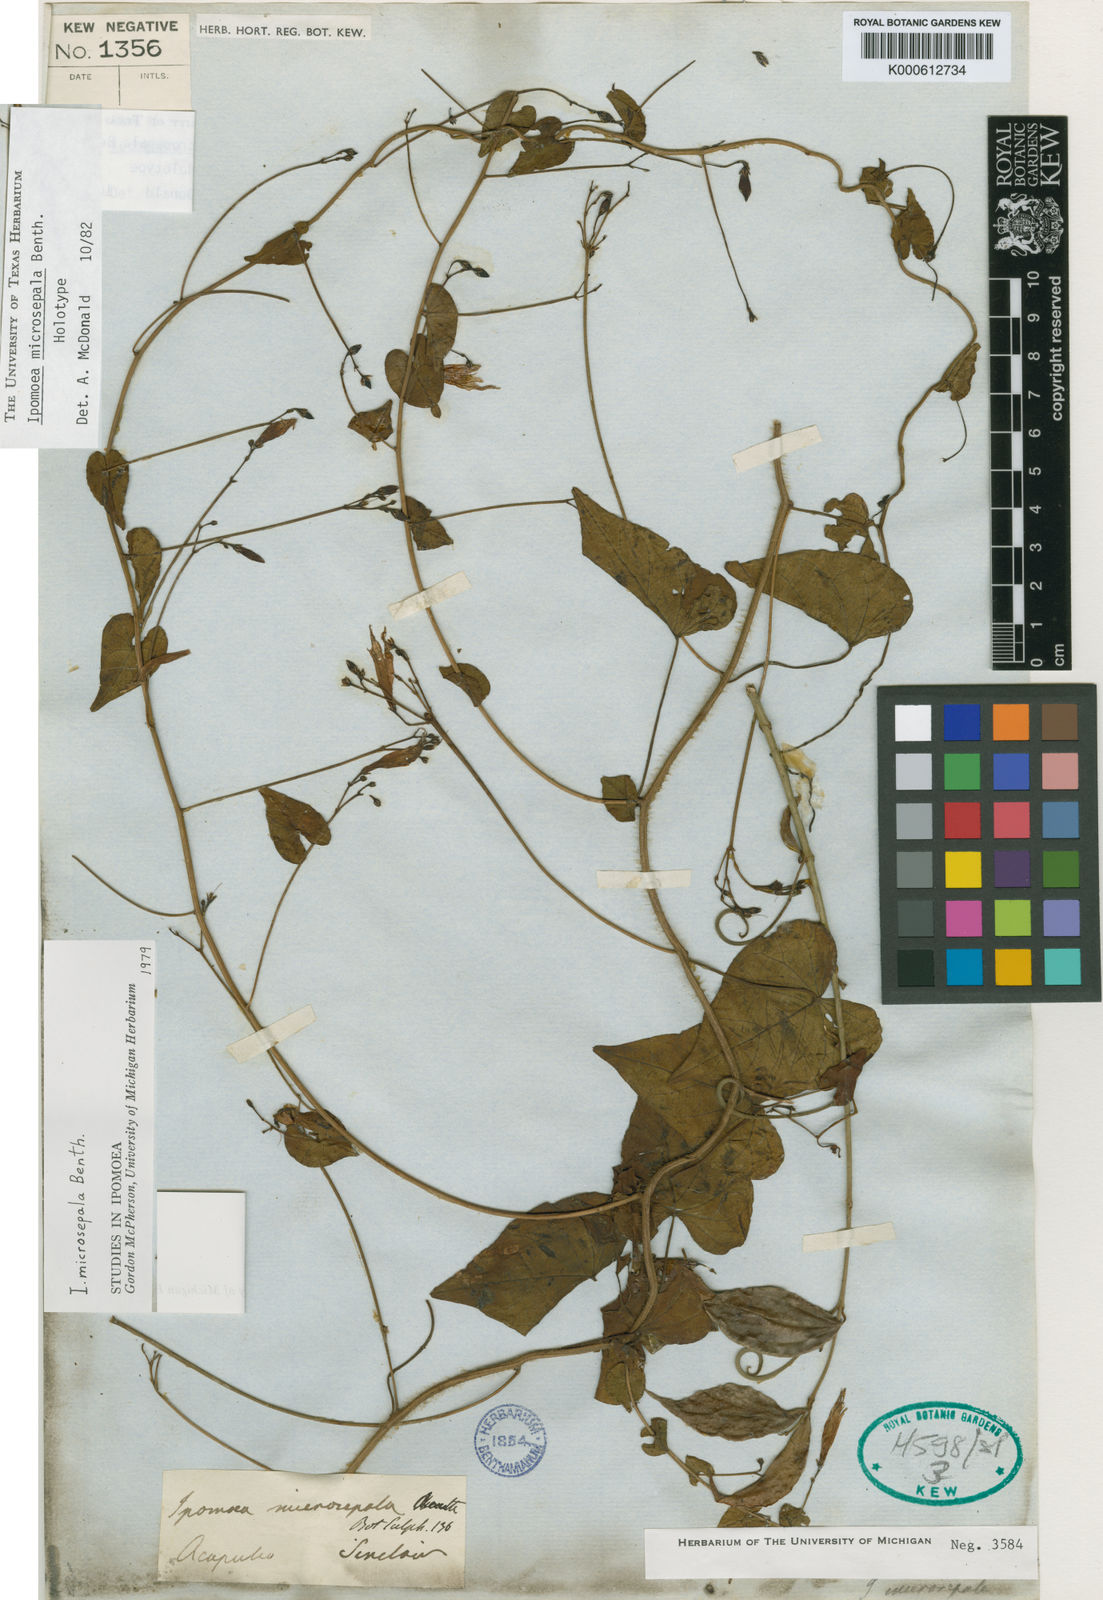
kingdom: Plantae
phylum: Tracheophyta
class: Magnoliopsida
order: Solanales
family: Convolvulaceae
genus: Ipomoea
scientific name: Ipomoea microsepala
